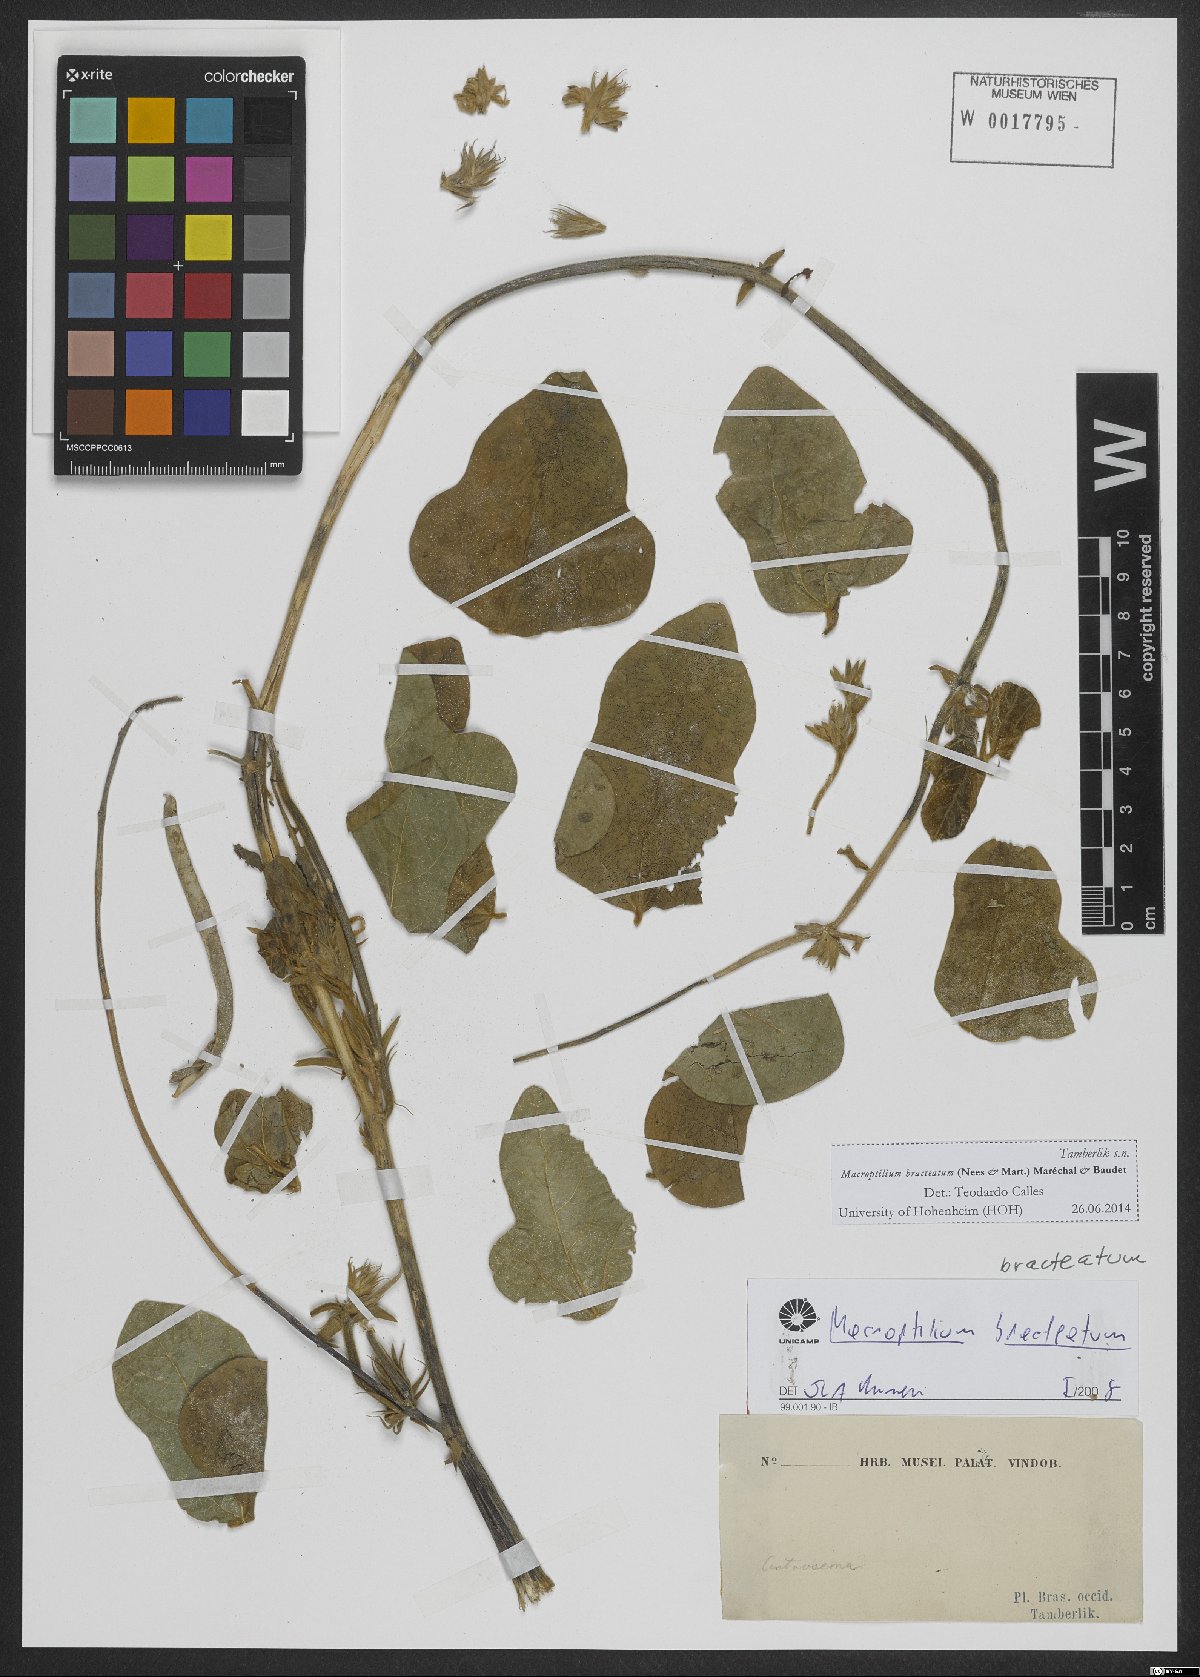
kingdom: Plantae
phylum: Tracheophyta
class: Magnoliopsida
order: Fabales
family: Fabaceae
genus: Macroptilium
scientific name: Macroptilium bracteatum
